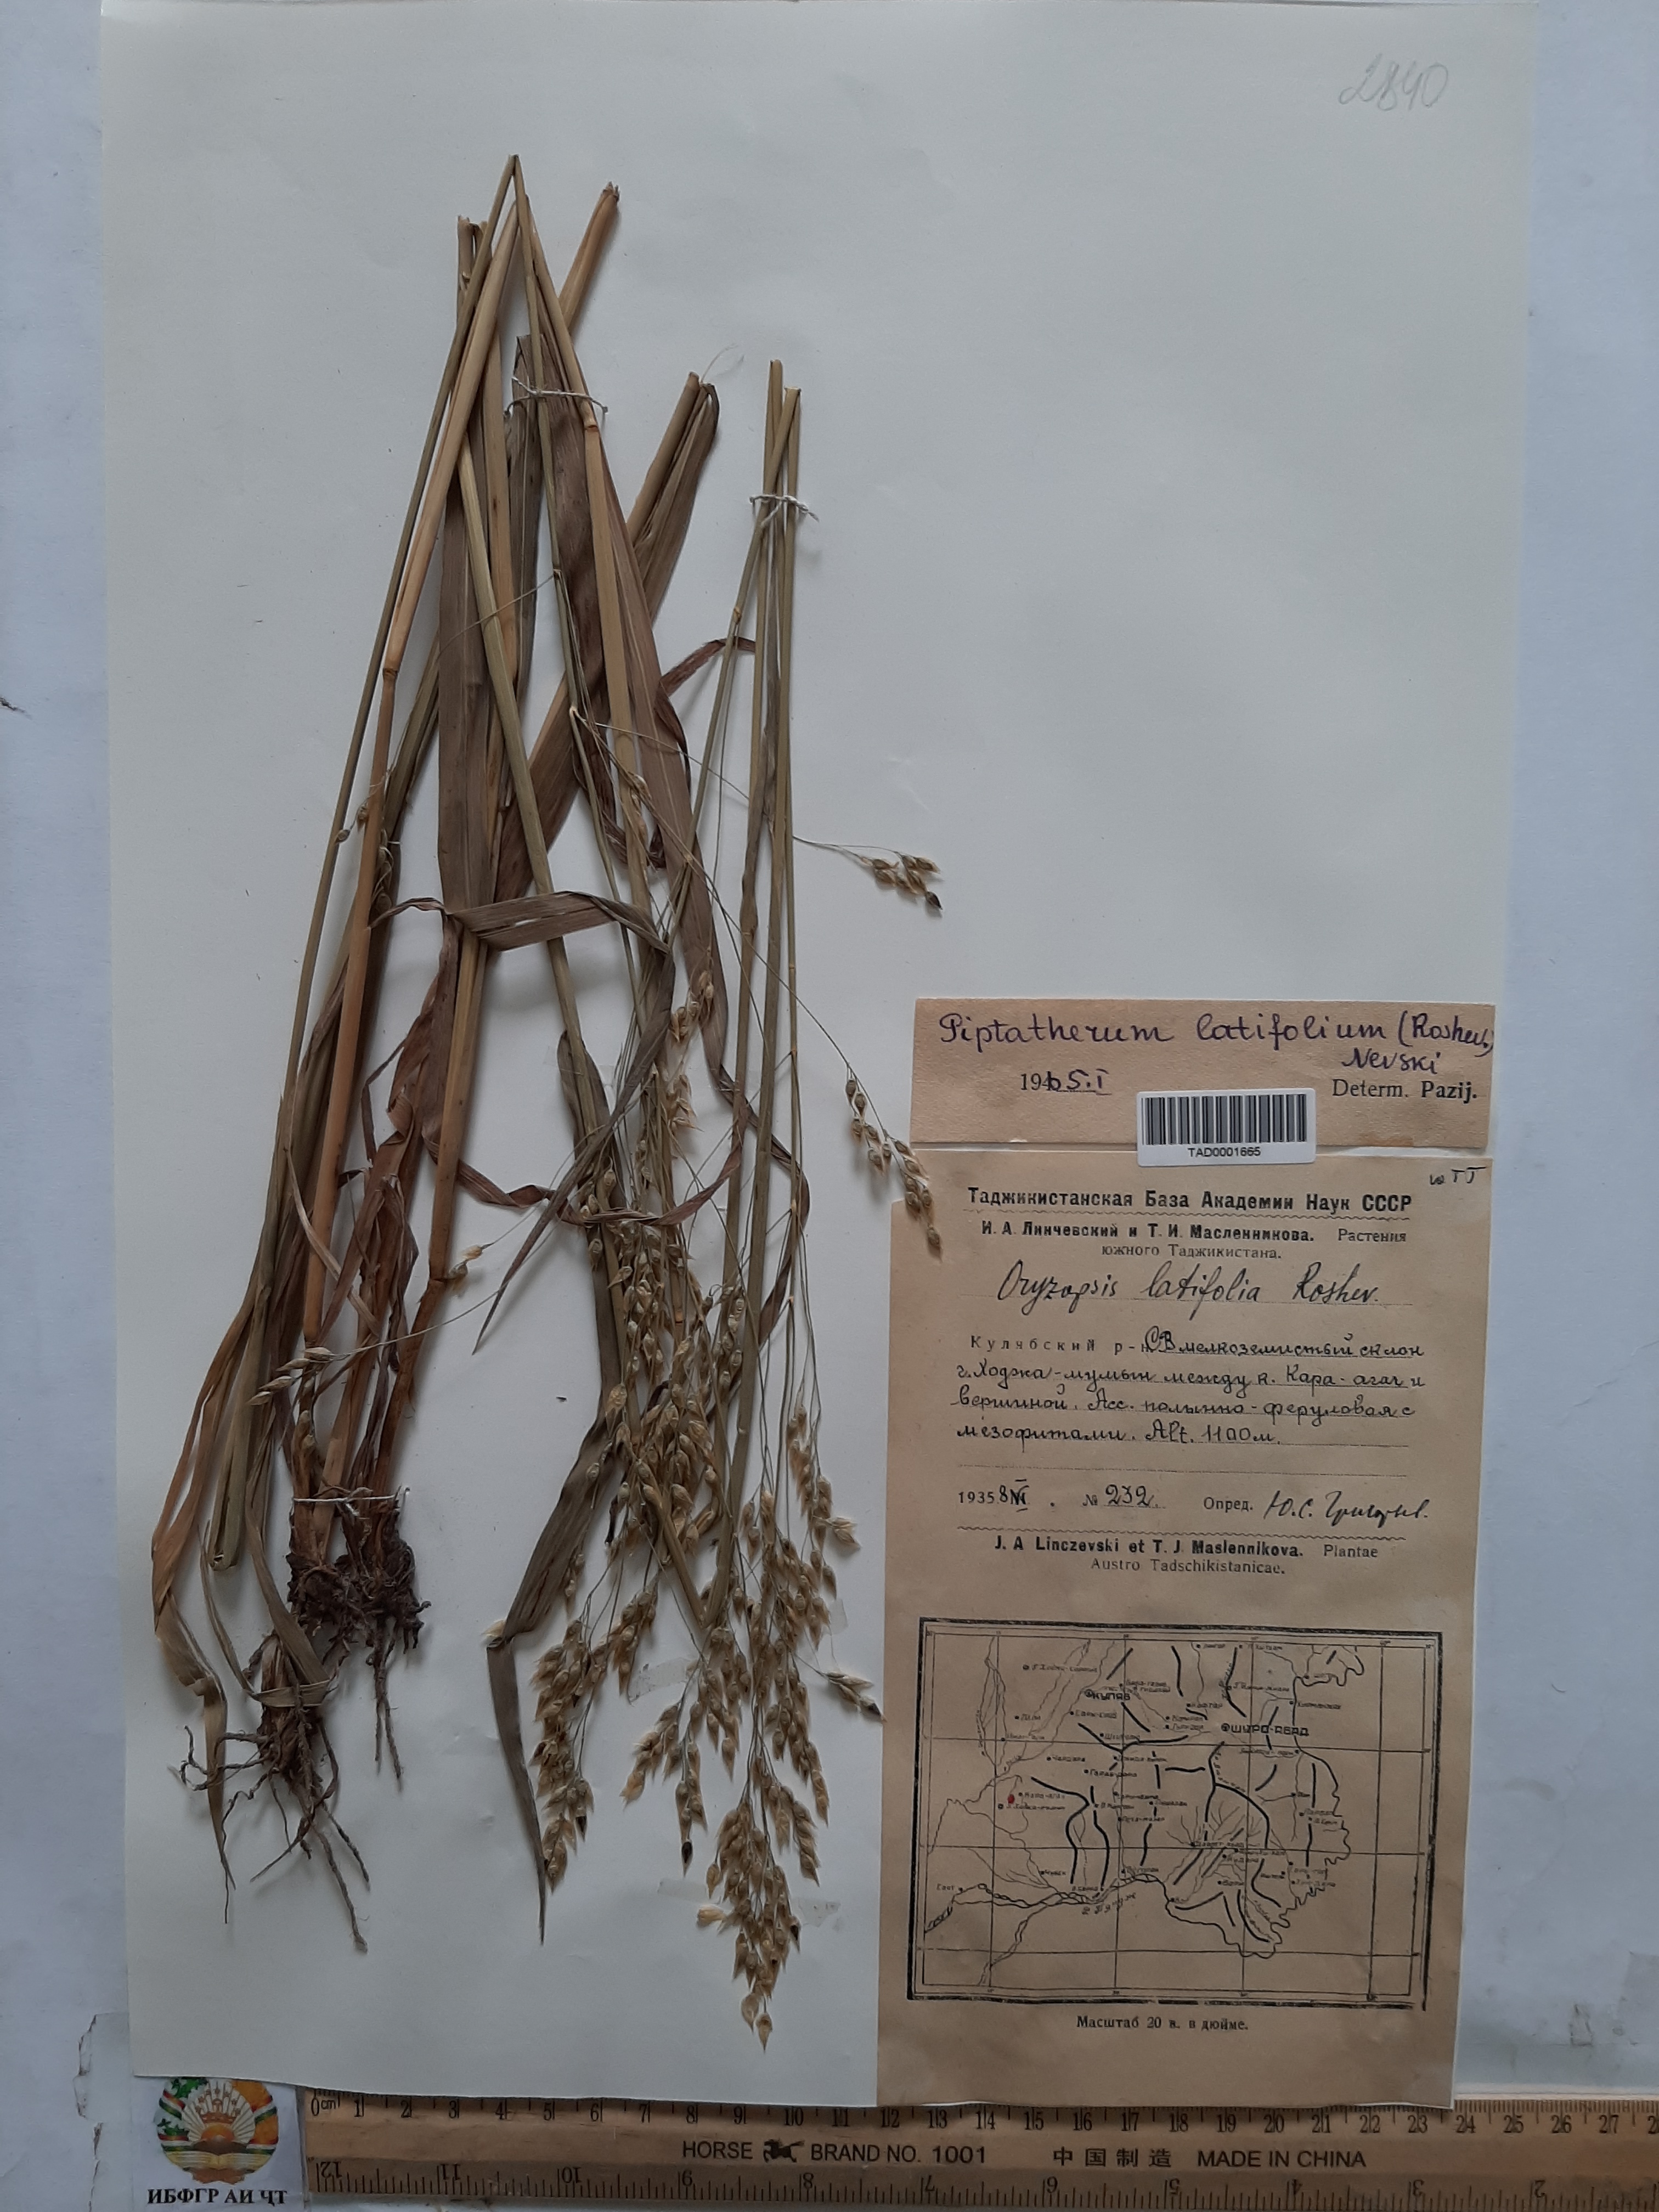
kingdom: Plantae
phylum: Tracheophyta
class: Liliopsida
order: Poales
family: Poaceae
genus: Piptatherum
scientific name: Piptatherum latifolium
